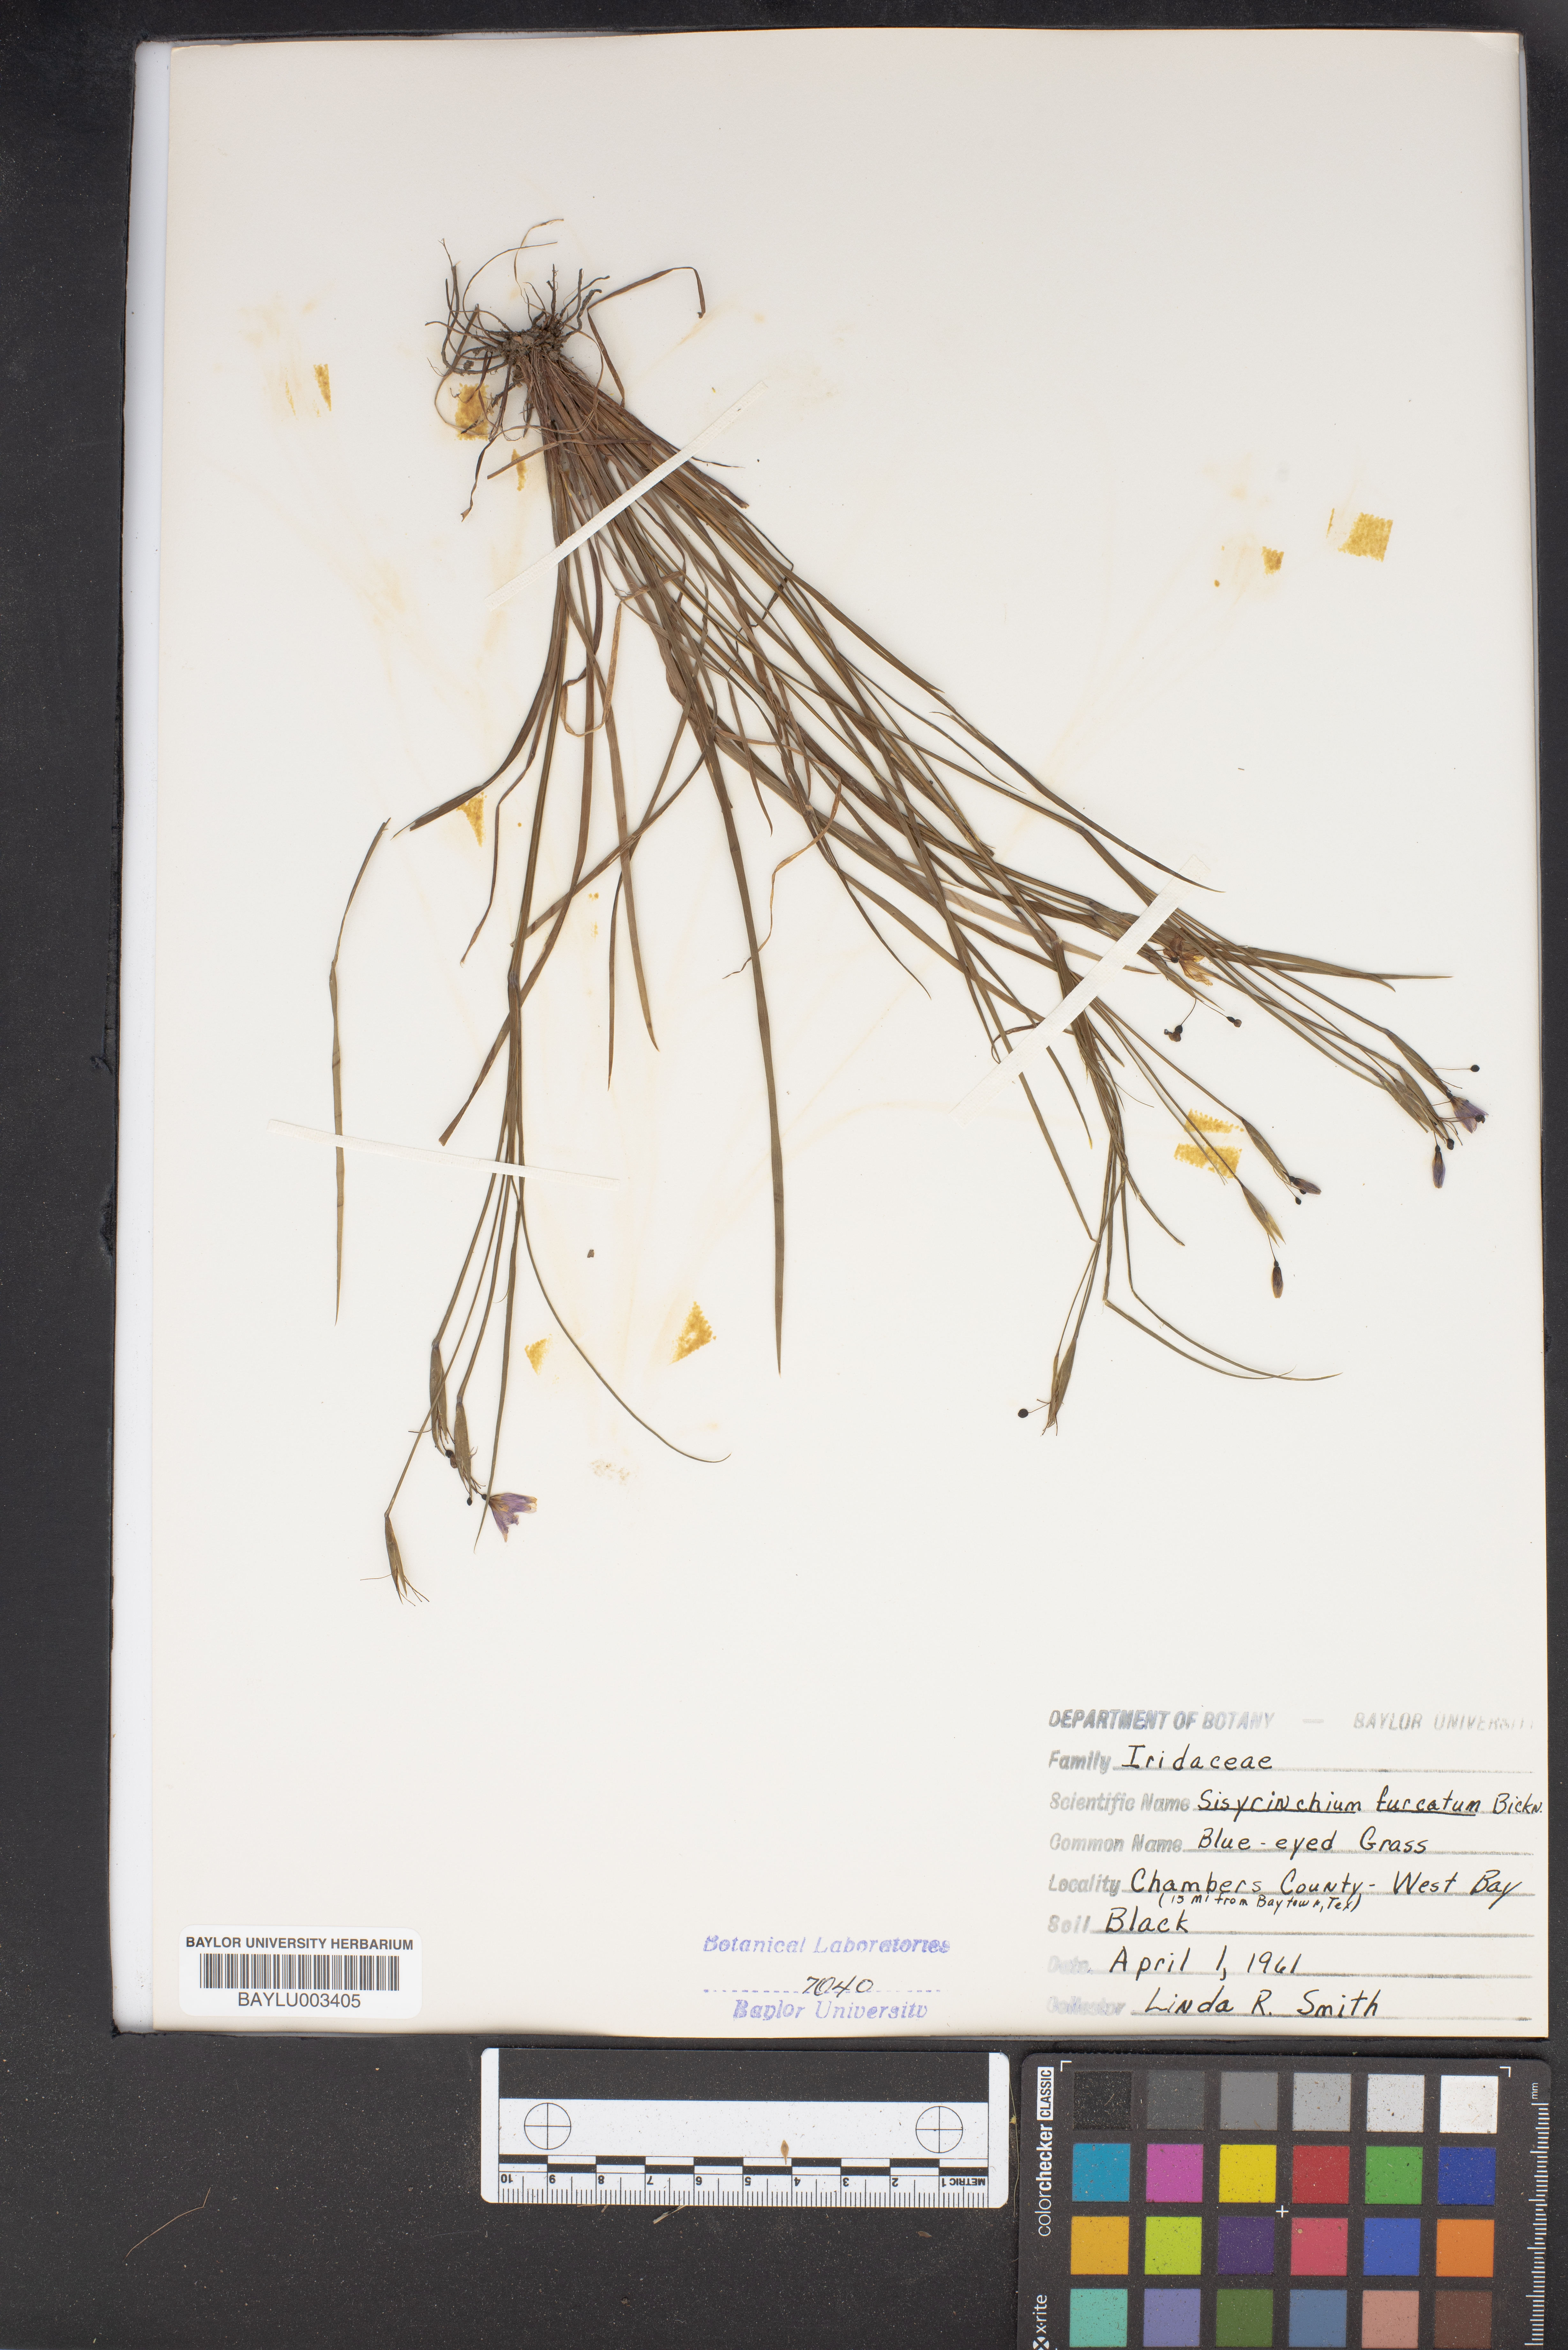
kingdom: Plantae
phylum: Tracheophyta
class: Liliopsida
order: Asparagales
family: Iridaceae
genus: Sisyrinchium
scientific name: Sisyrinchium fuscatum
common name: Coastal plain blue-eyed-grass
